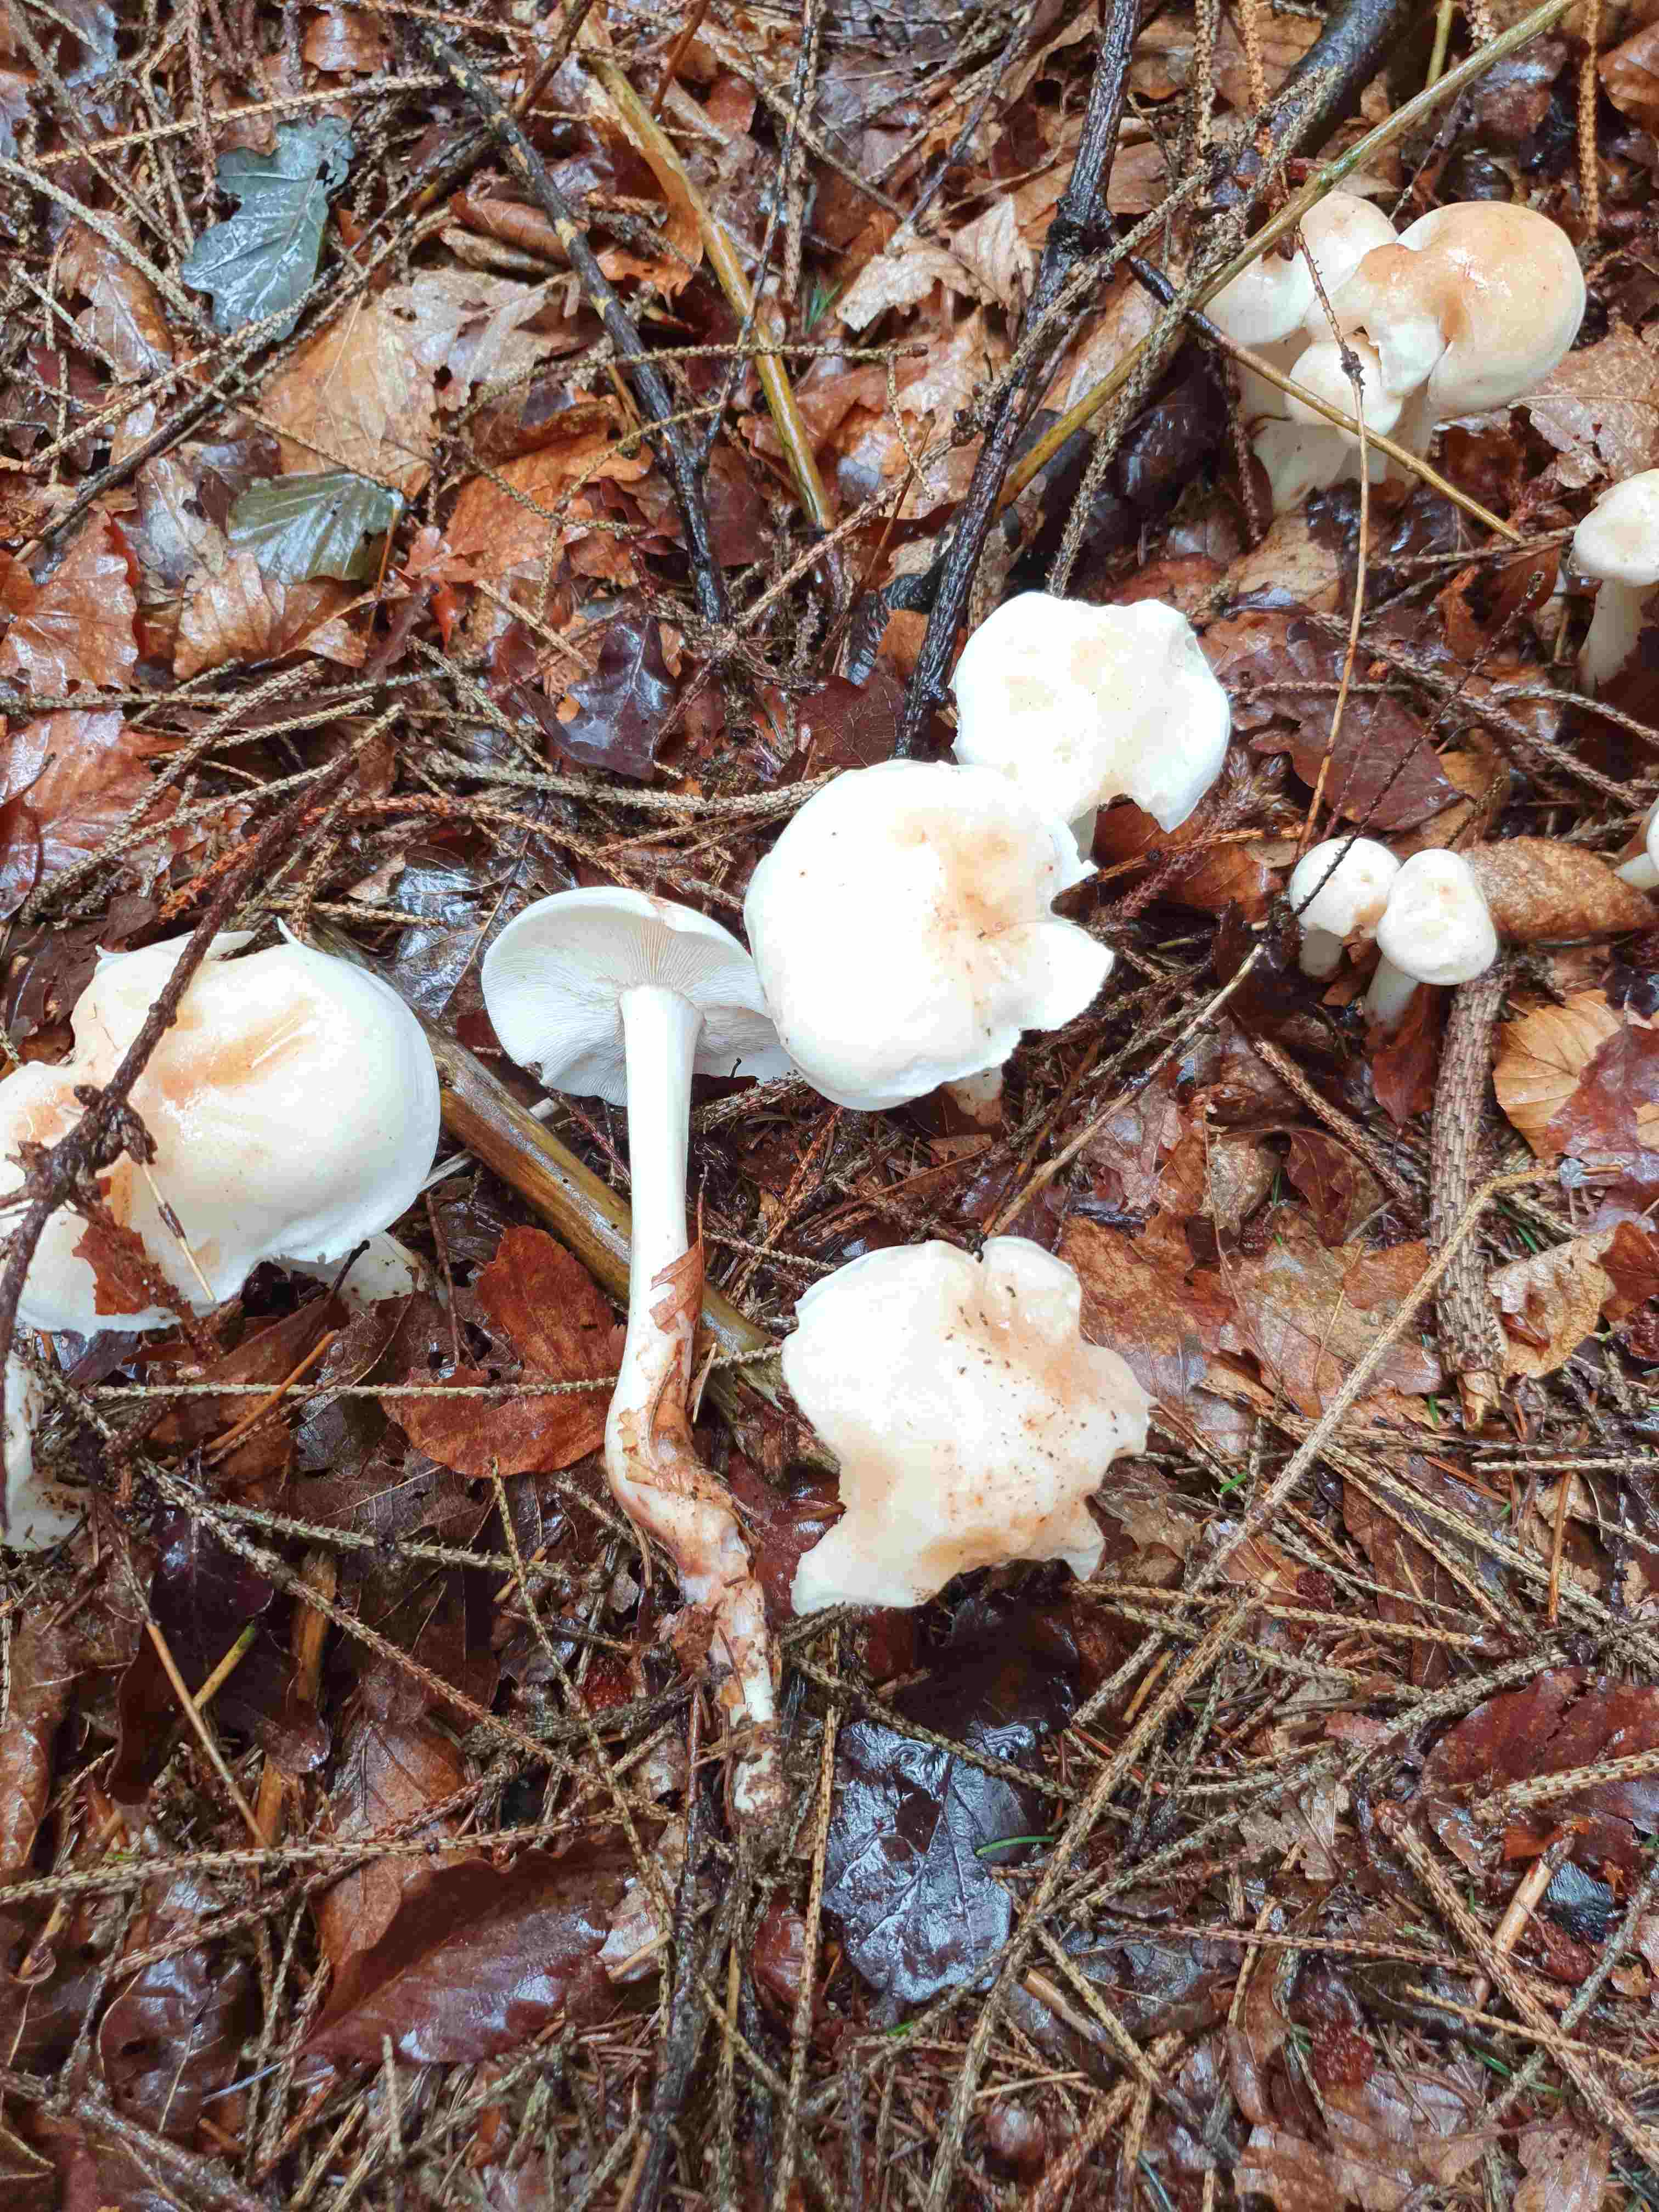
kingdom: Fungi
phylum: Basidiomycota
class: Agaricomycetes
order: Agaricales
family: Omphalotaceae
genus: Rhodocollybia
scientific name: Rhodocollybia maculata
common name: plettet fladhat
